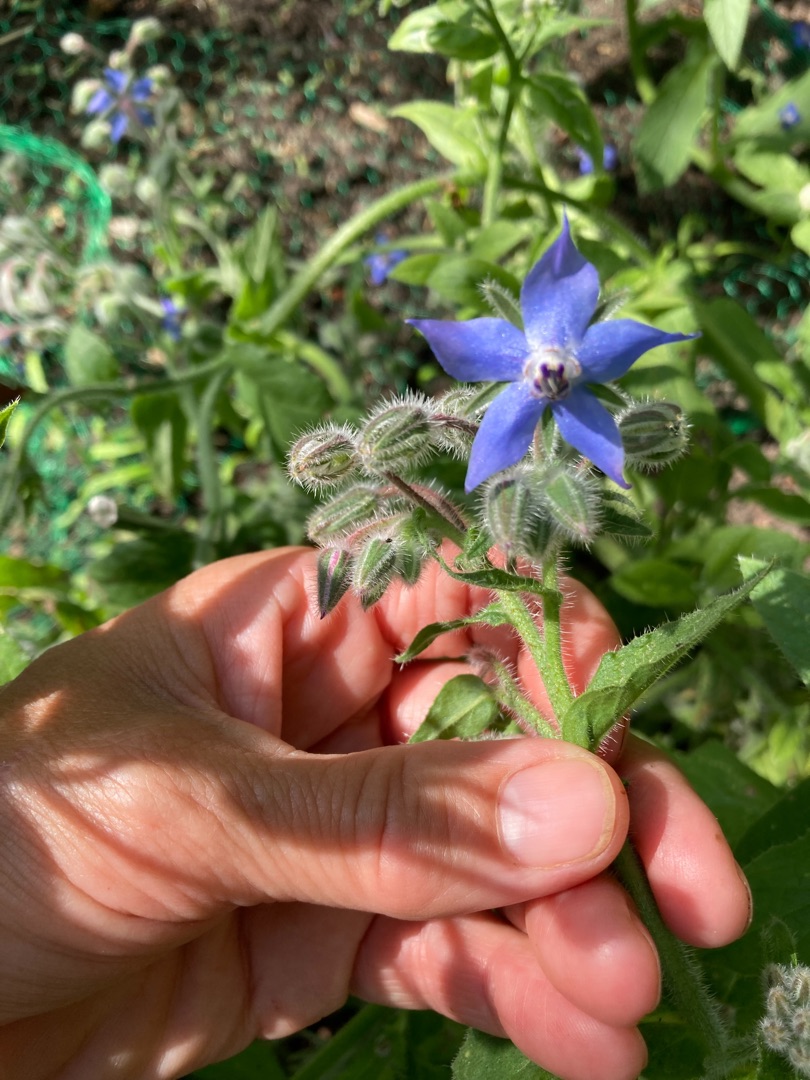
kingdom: Plantae
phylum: Tracheophyta
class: Magnoliopsida
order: Boraginales
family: Boraginaceae
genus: Borago
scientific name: Borago officinalis
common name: Hjulkrone
